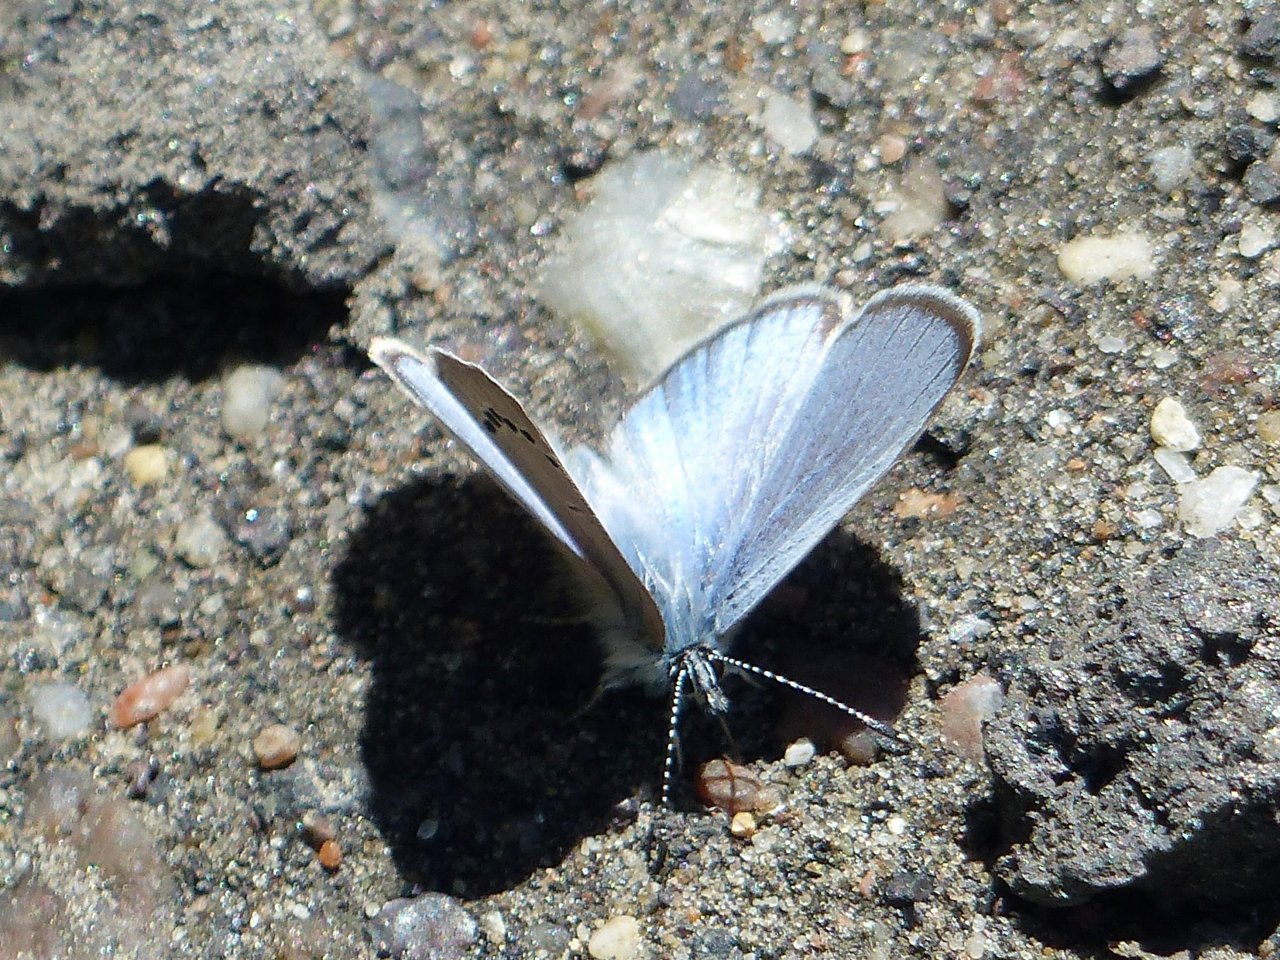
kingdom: Animalia
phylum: Arthropoda
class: Insecta
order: Lepidoptera
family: Lycaenidae
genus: Glaucopsyche
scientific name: Glaucopsyche lygdamus
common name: Silvery Blue
